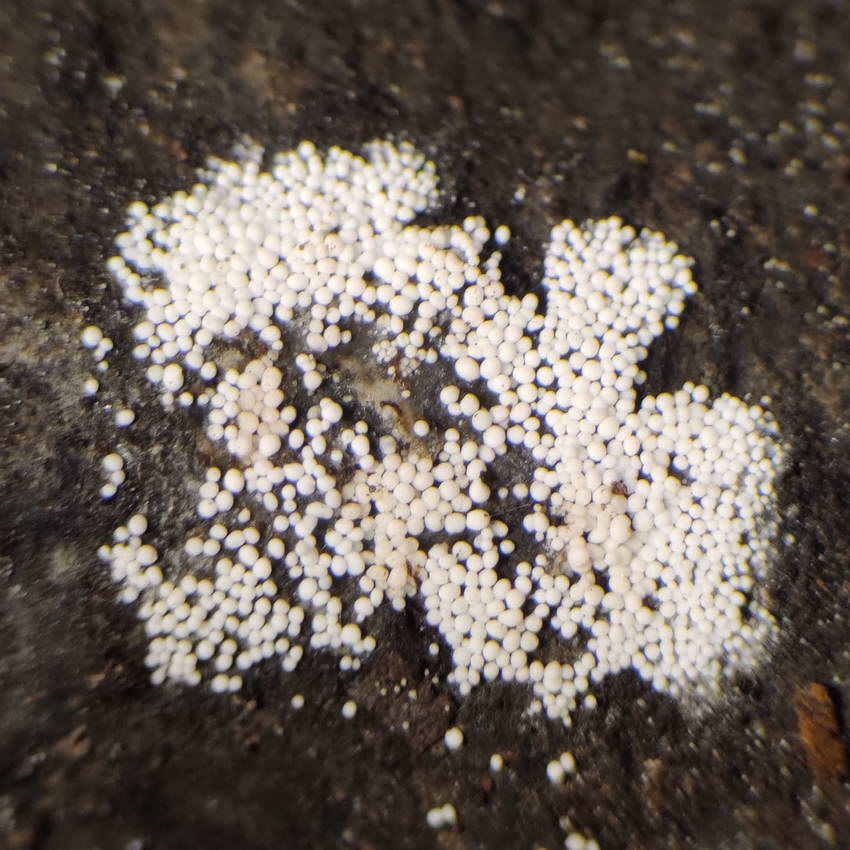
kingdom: Fungi
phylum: Basidiomycota
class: Agaricomycetes
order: Polyporales
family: Meruliaceae
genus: Bulbillomyces
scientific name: Bulbillomyces farinosus
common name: æg-kalkskind
